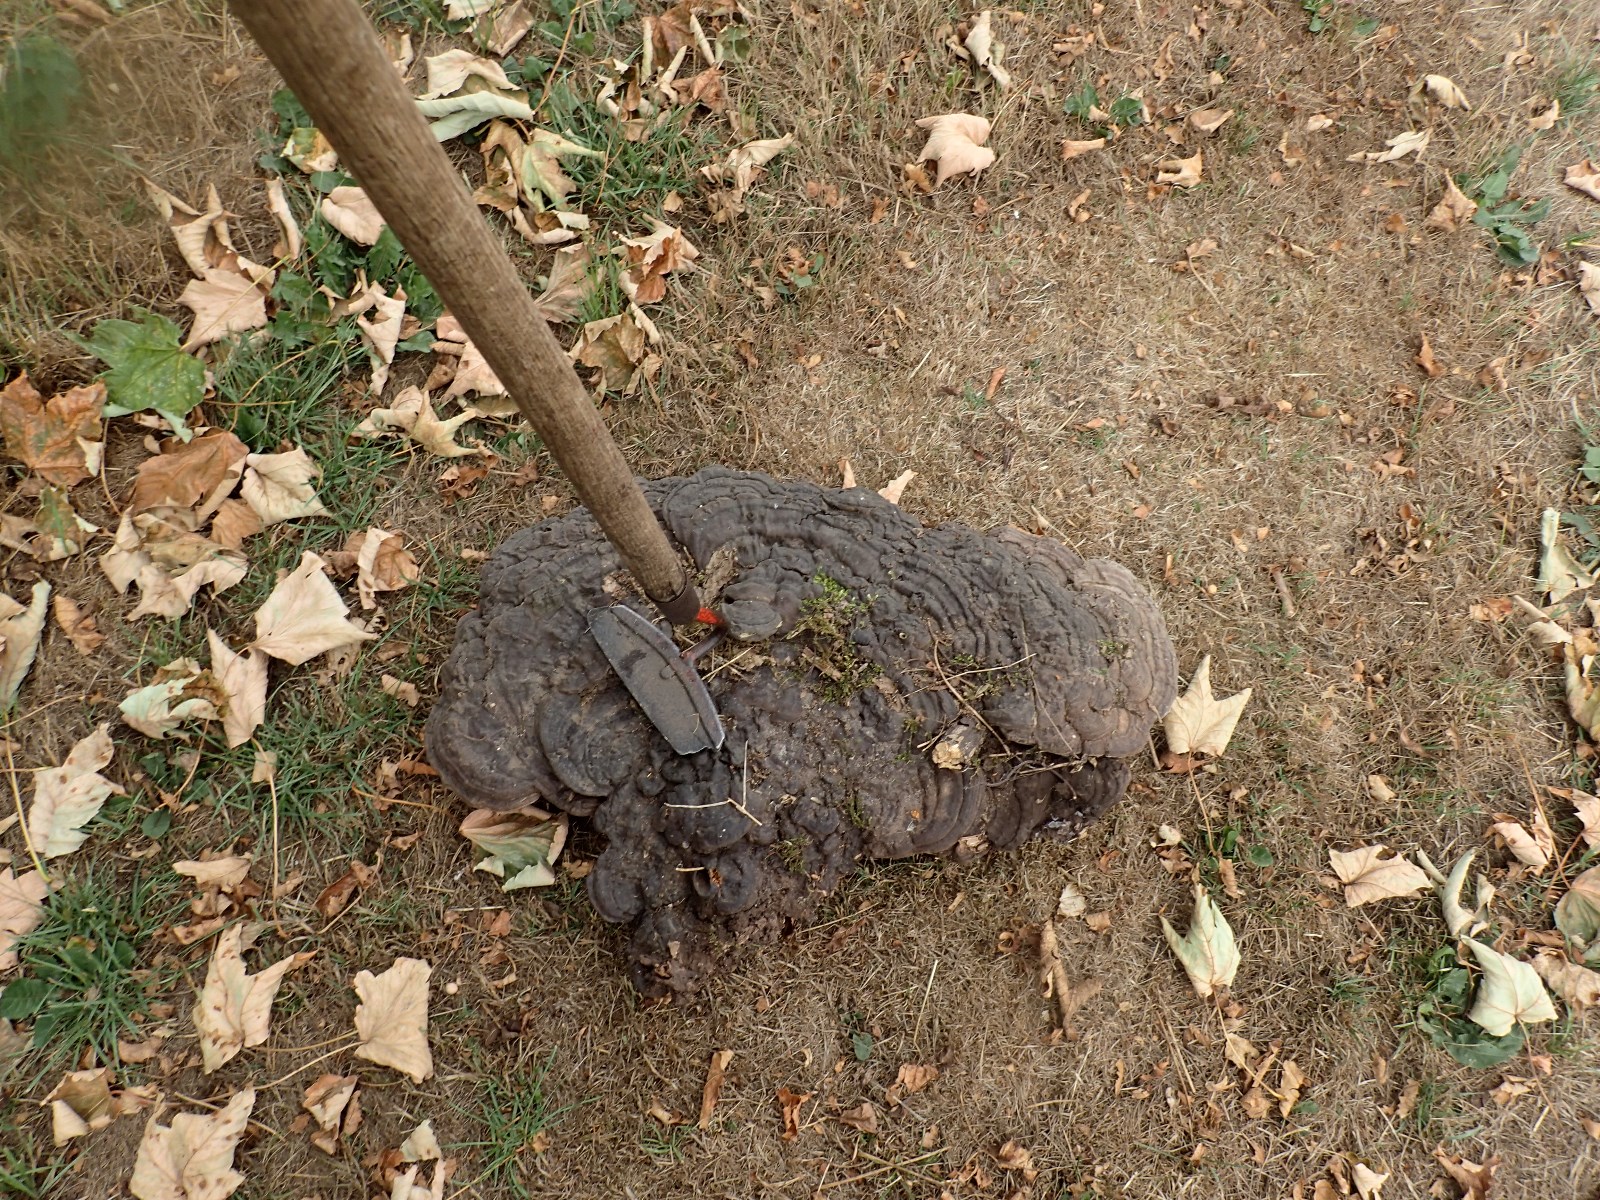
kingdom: Fungi
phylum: Basidiomycota
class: Agaricomycetes
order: Polyporales
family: Polyporaceae
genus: Ganoderma
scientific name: Ganoderma applanatum
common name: flad lakporesvamp
